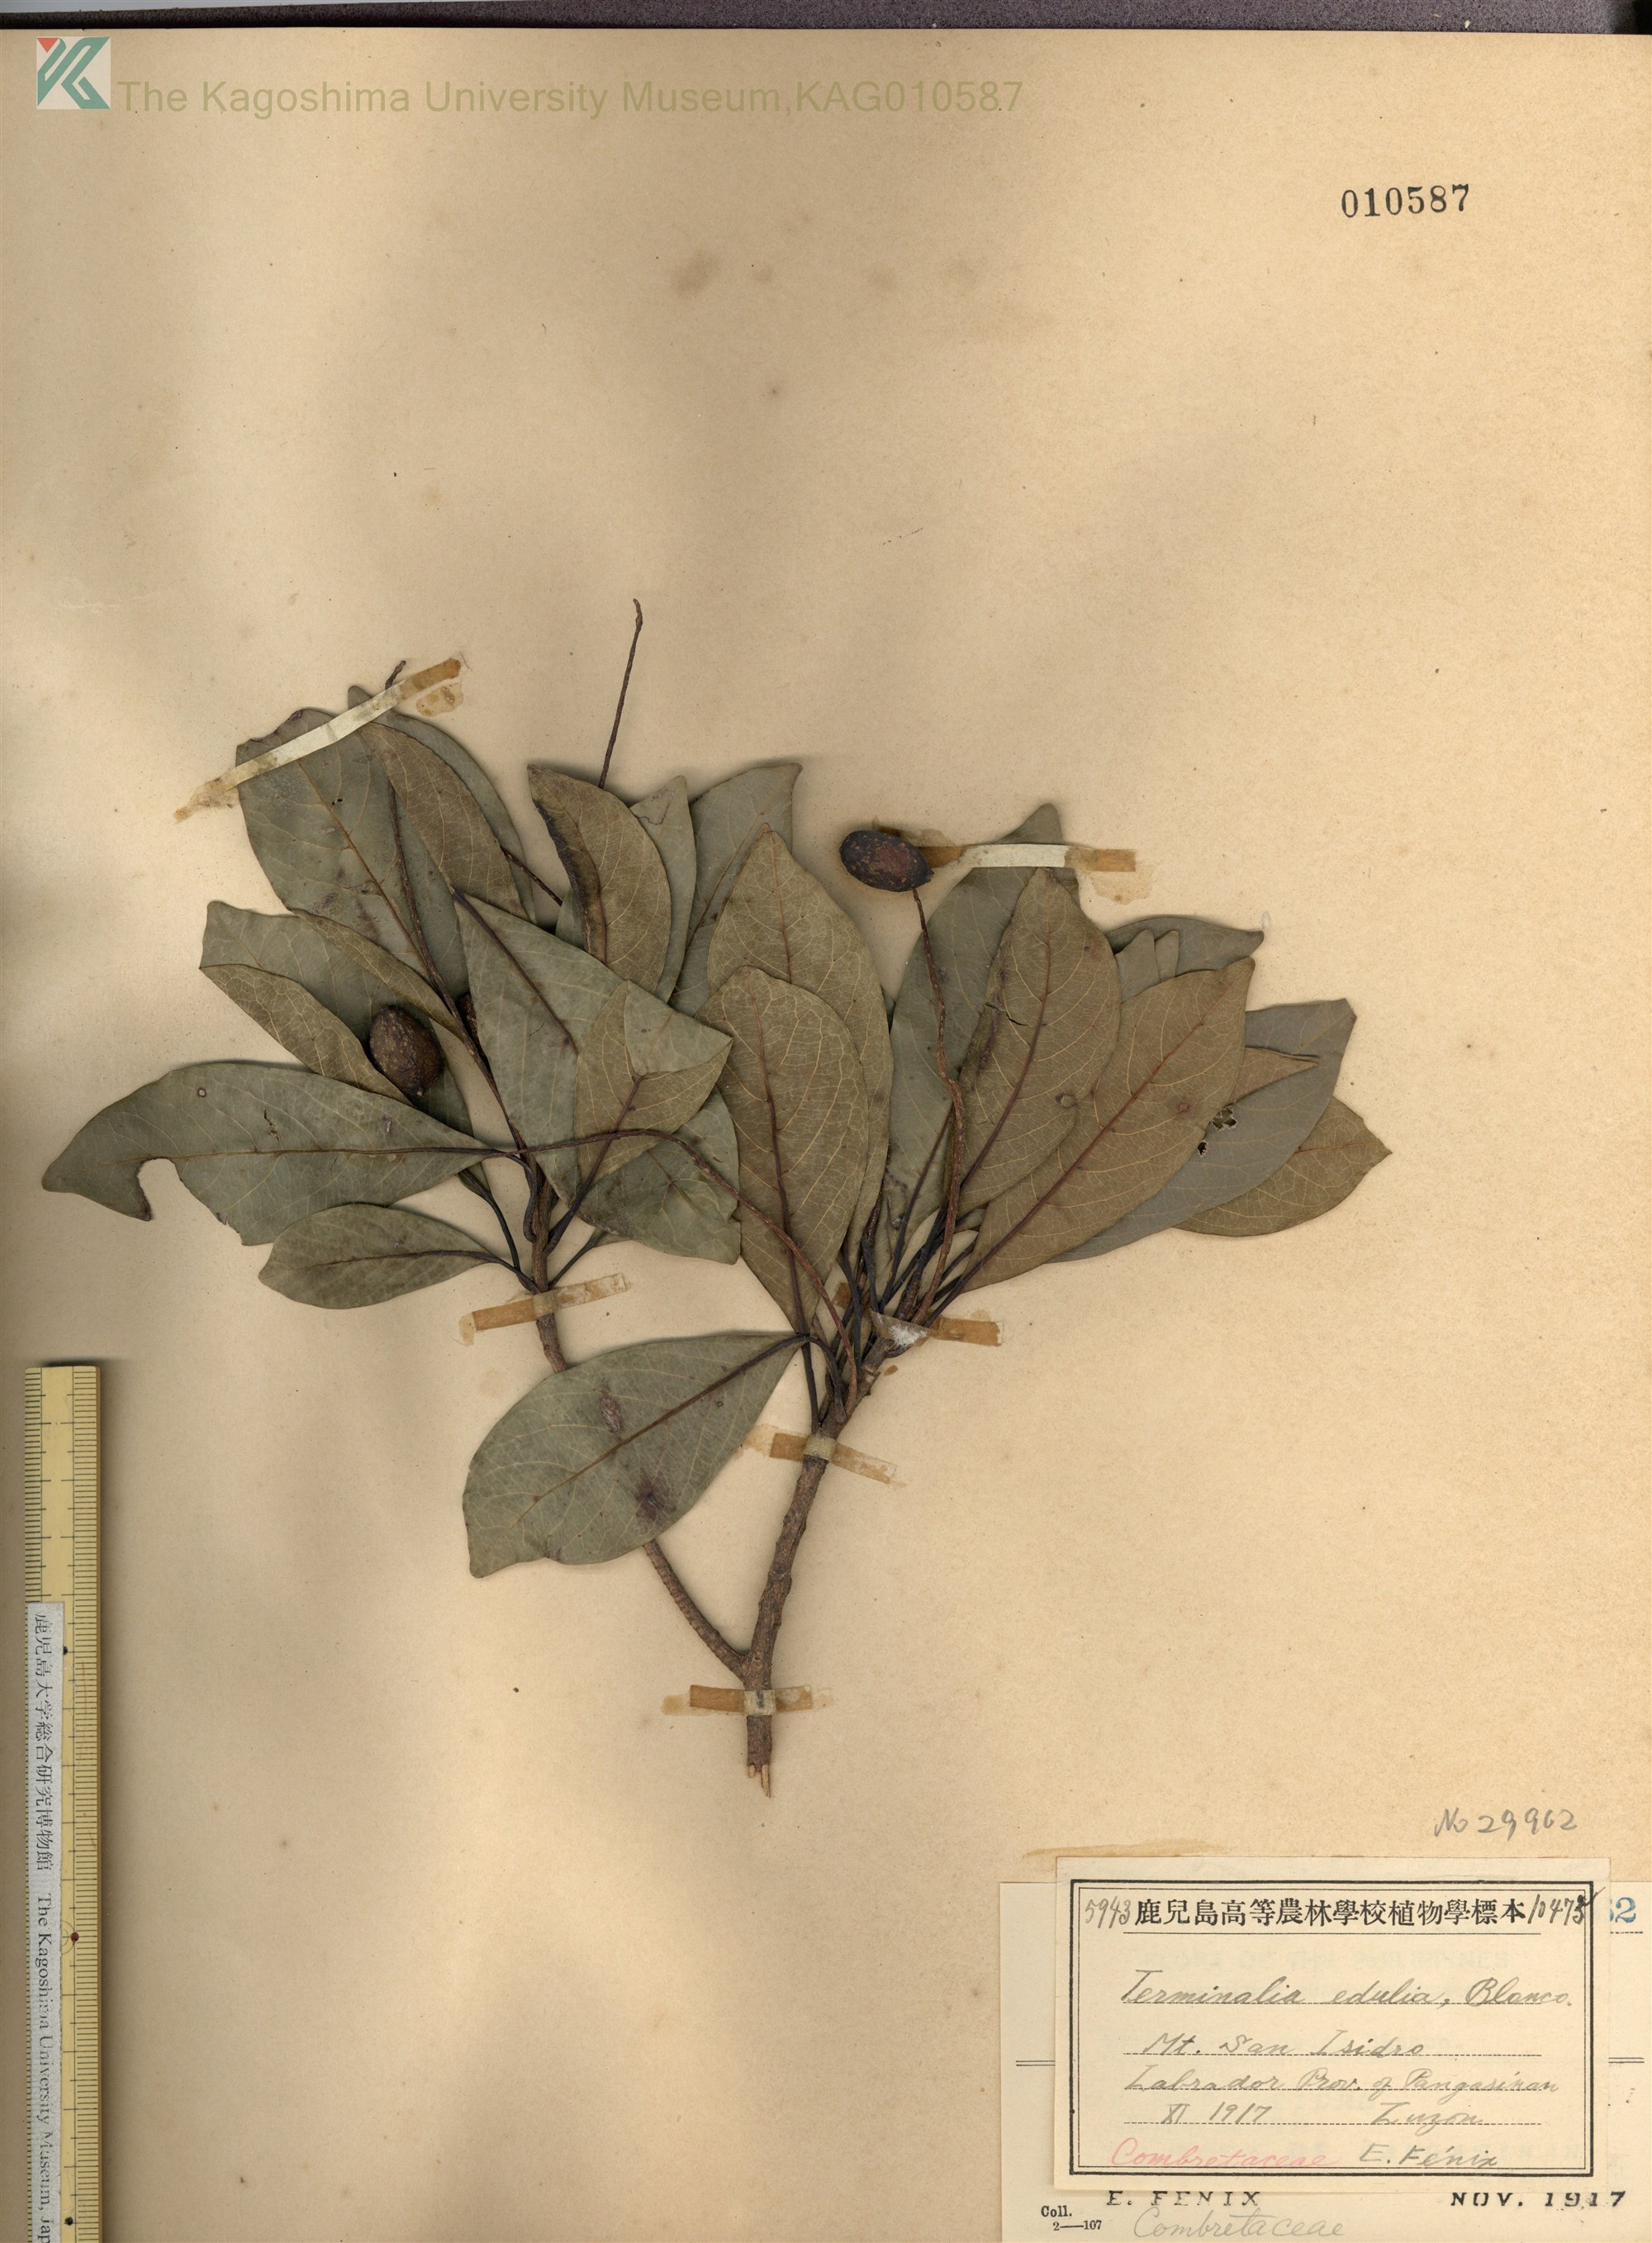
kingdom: Plantae
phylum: Tracheophyta
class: Magnoliopsida
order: Myrtales
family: Combretaceae
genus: Terminalia
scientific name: Terminalia microcarpa
